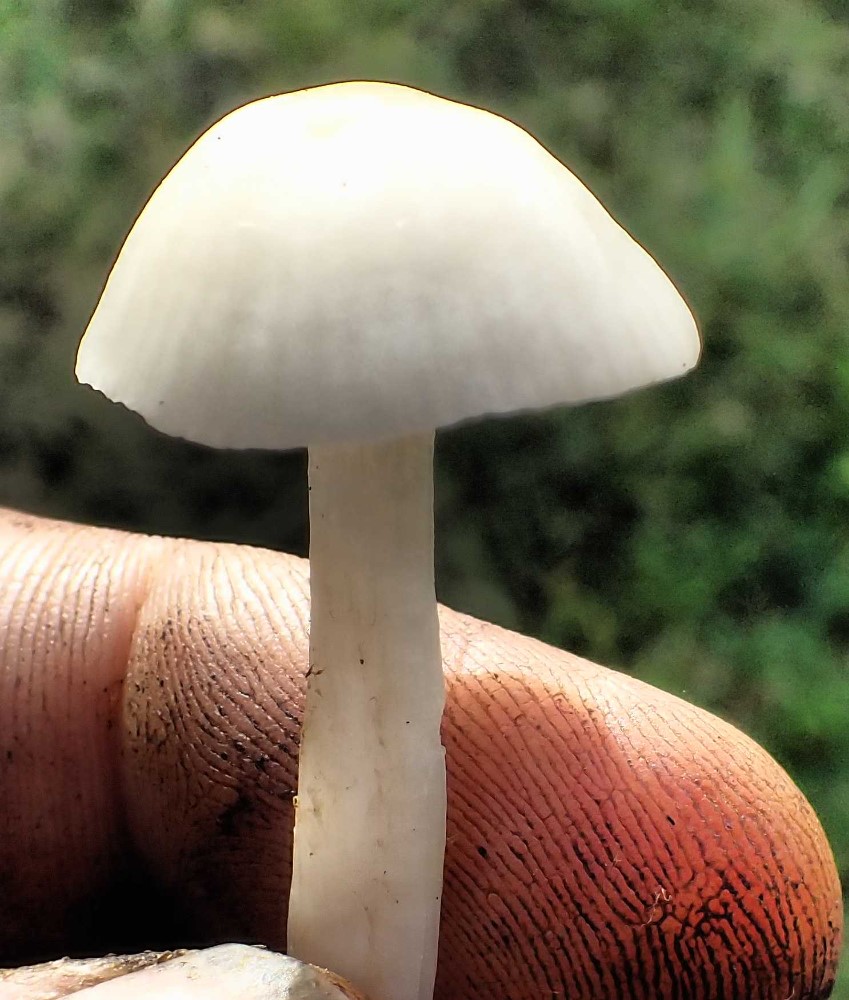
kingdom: Fungi
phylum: Basidiomycota
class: Agaricomycetes
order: Agaricales
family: Hygrophoraceae
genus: Cuphophyllus
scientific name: Cuphophyllus virgineus
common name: snehvid vokshat
